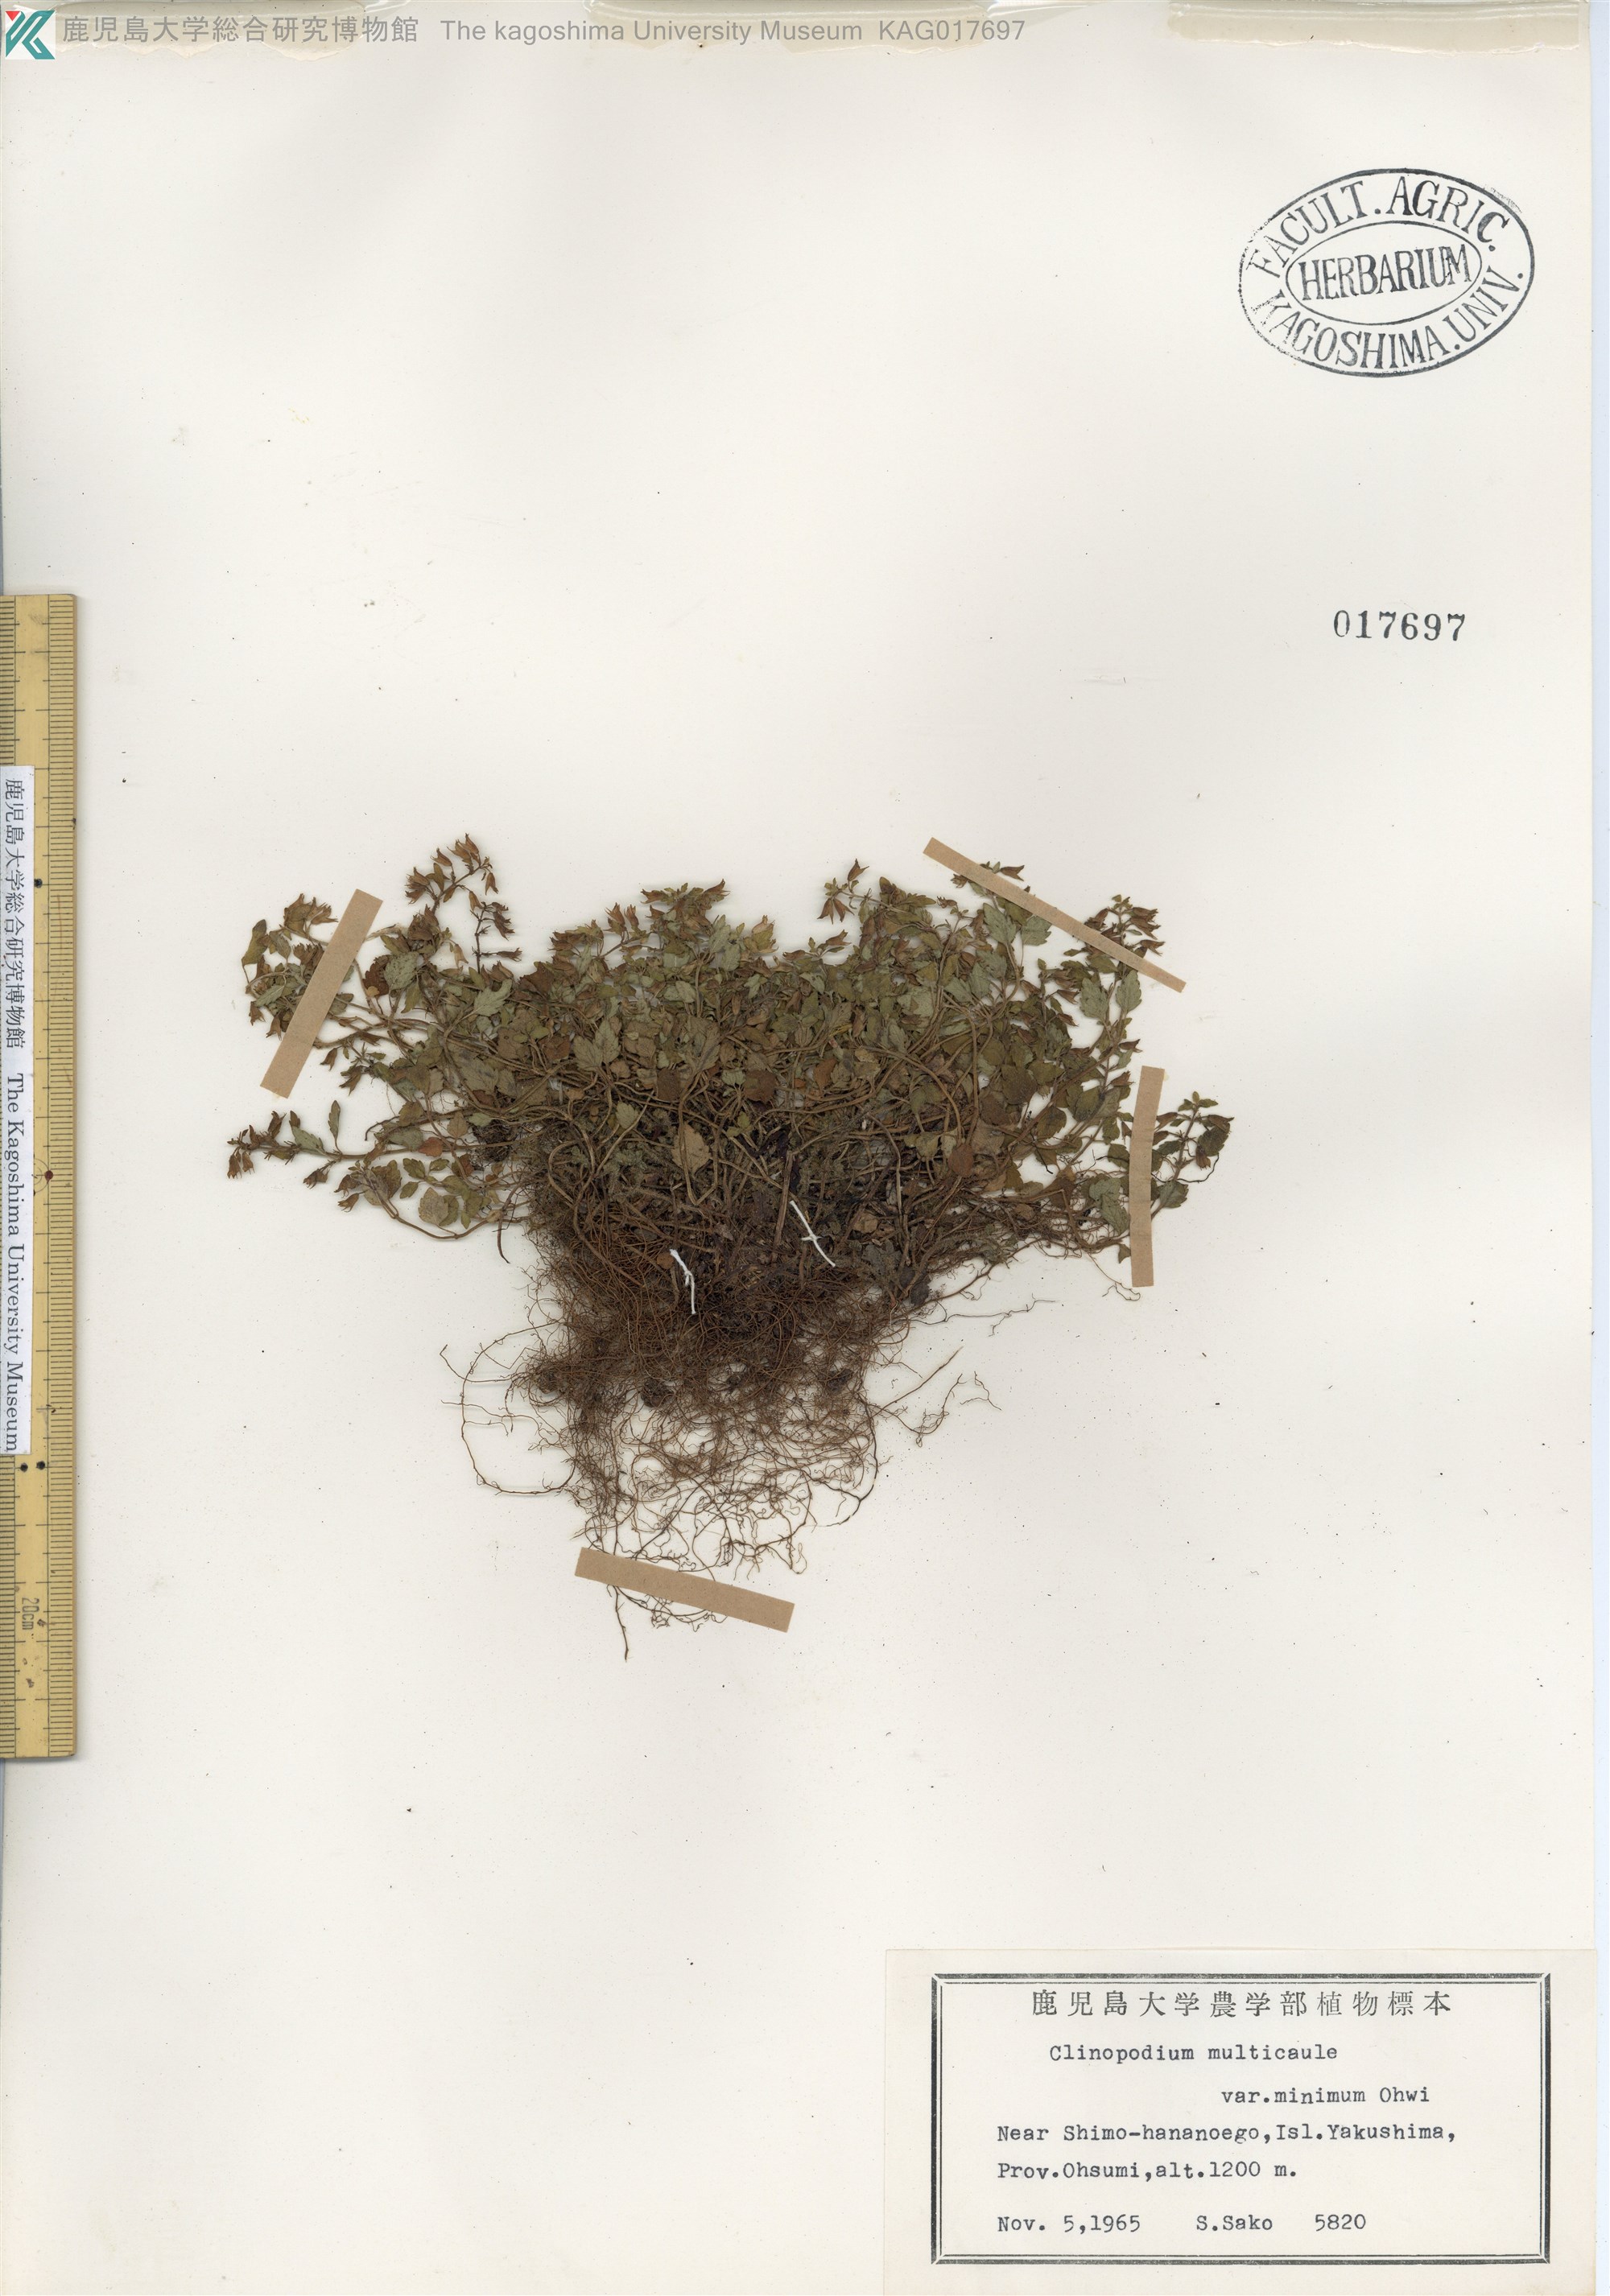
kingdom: Plantae
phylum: Tracheophyta
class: Magnoliopsida
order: Lamiales
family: Lamiaceae
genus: Clinopodium
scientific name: Clinopodium multicaule
